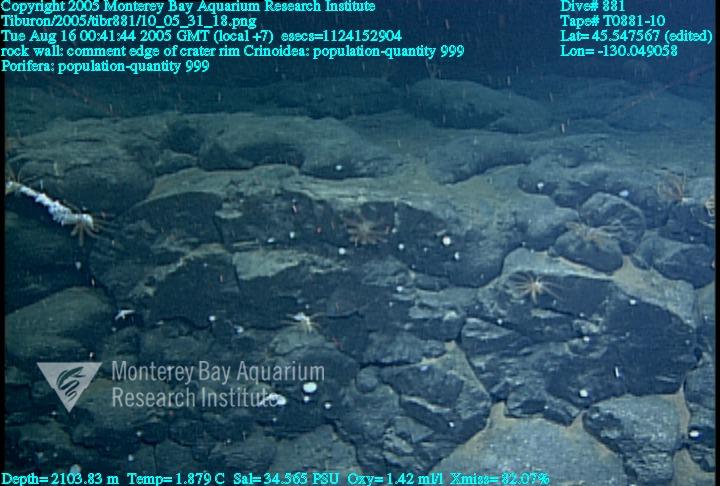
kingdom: Animalia
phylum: Porifera
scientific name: Porifera
